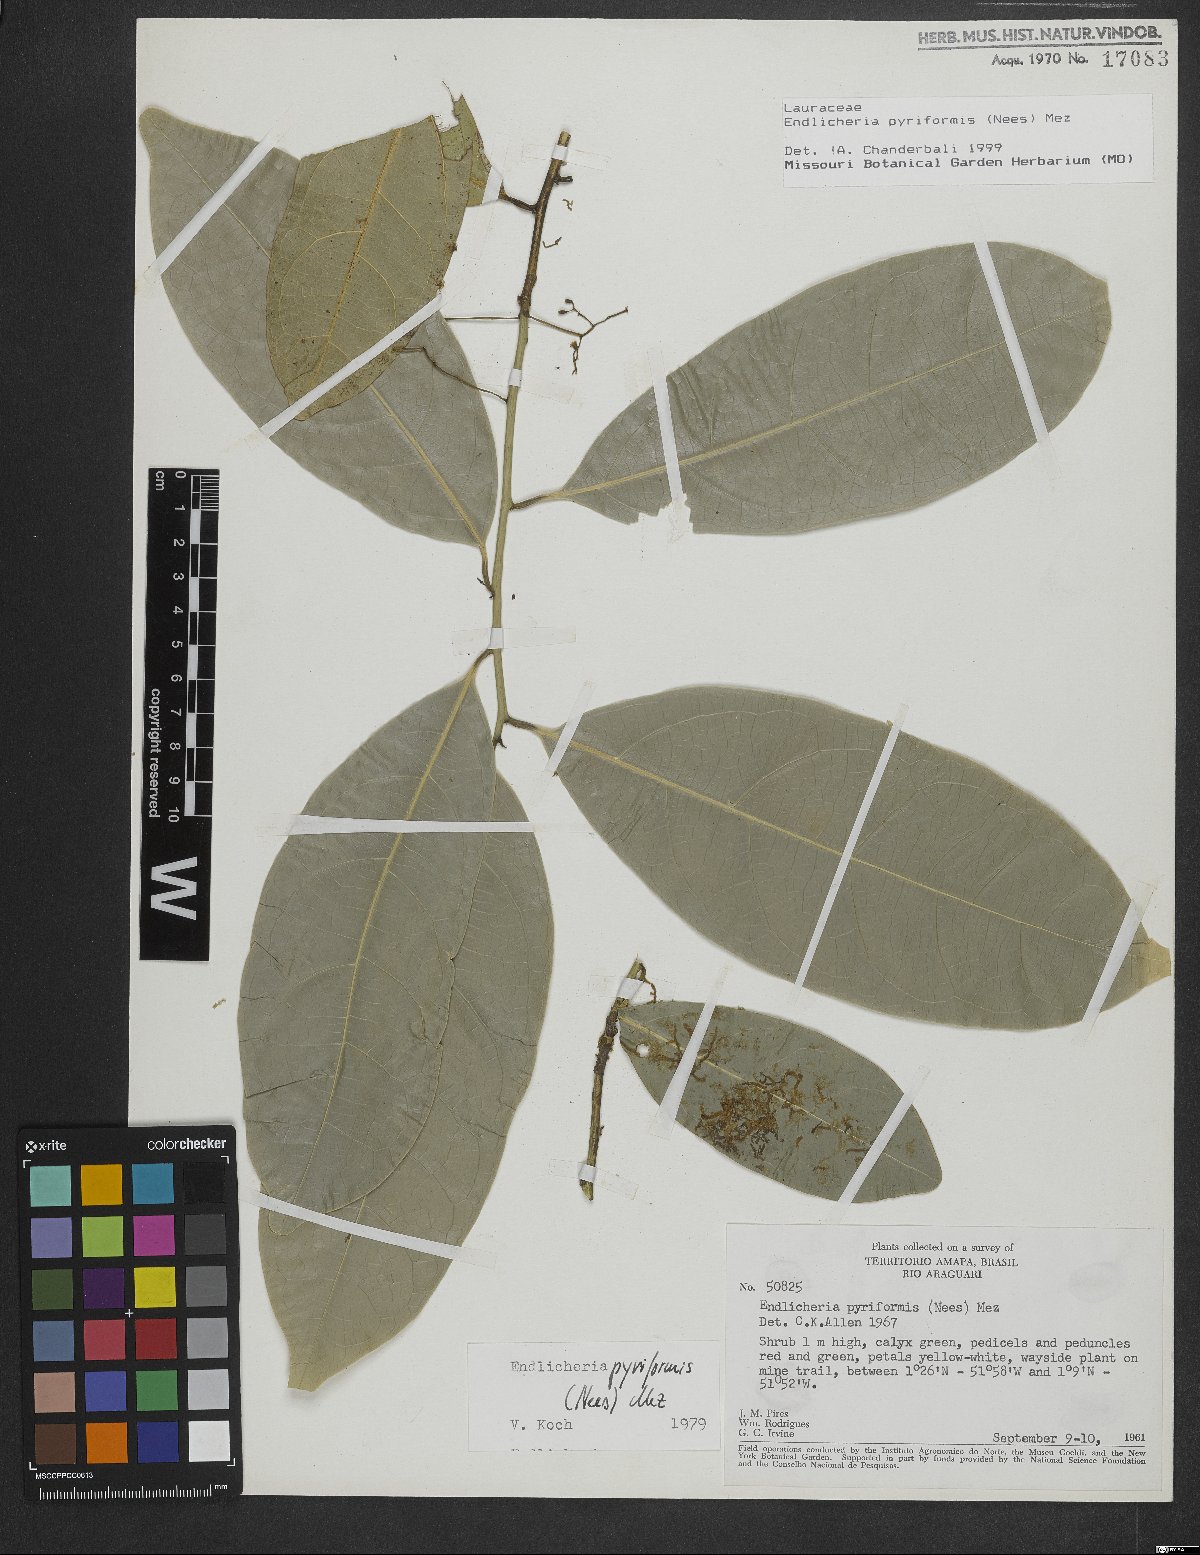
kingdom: Plantae
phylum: Tracheophyta
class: Magnoliopsida
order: Laurales
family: Lauraceae
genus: Endlicheria
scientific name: Endlicheria pyriformis
